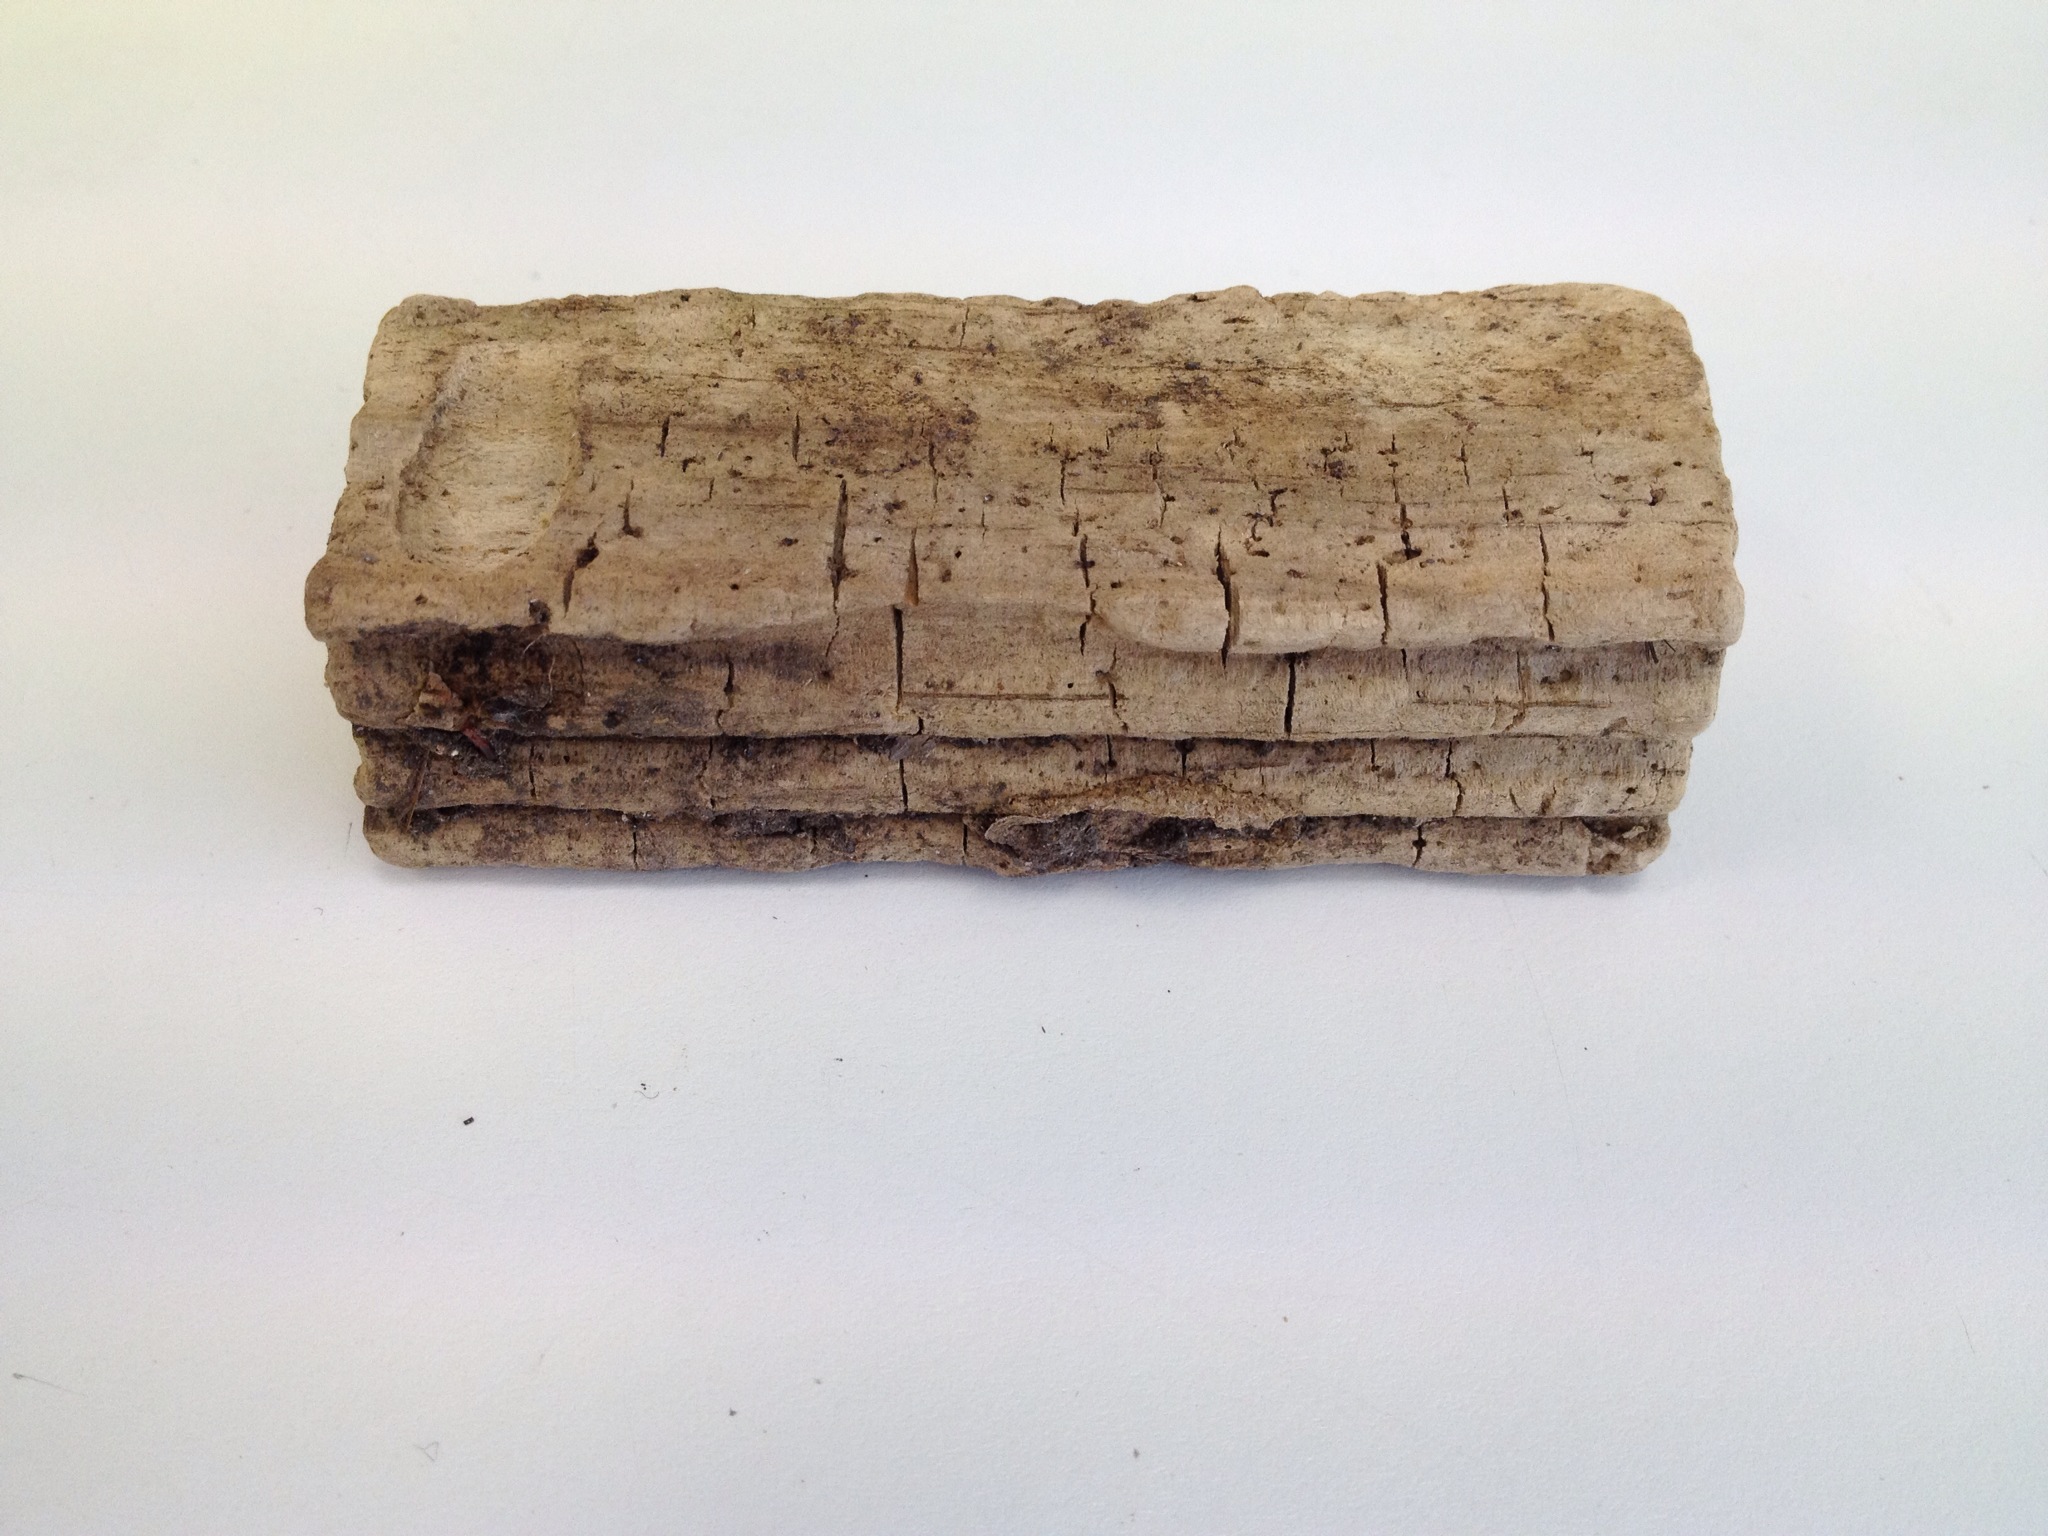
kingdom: Animalia
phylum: Arthropoda
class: Arachnida
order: Araneae
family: Migidae
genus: Migas
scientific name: Migas
